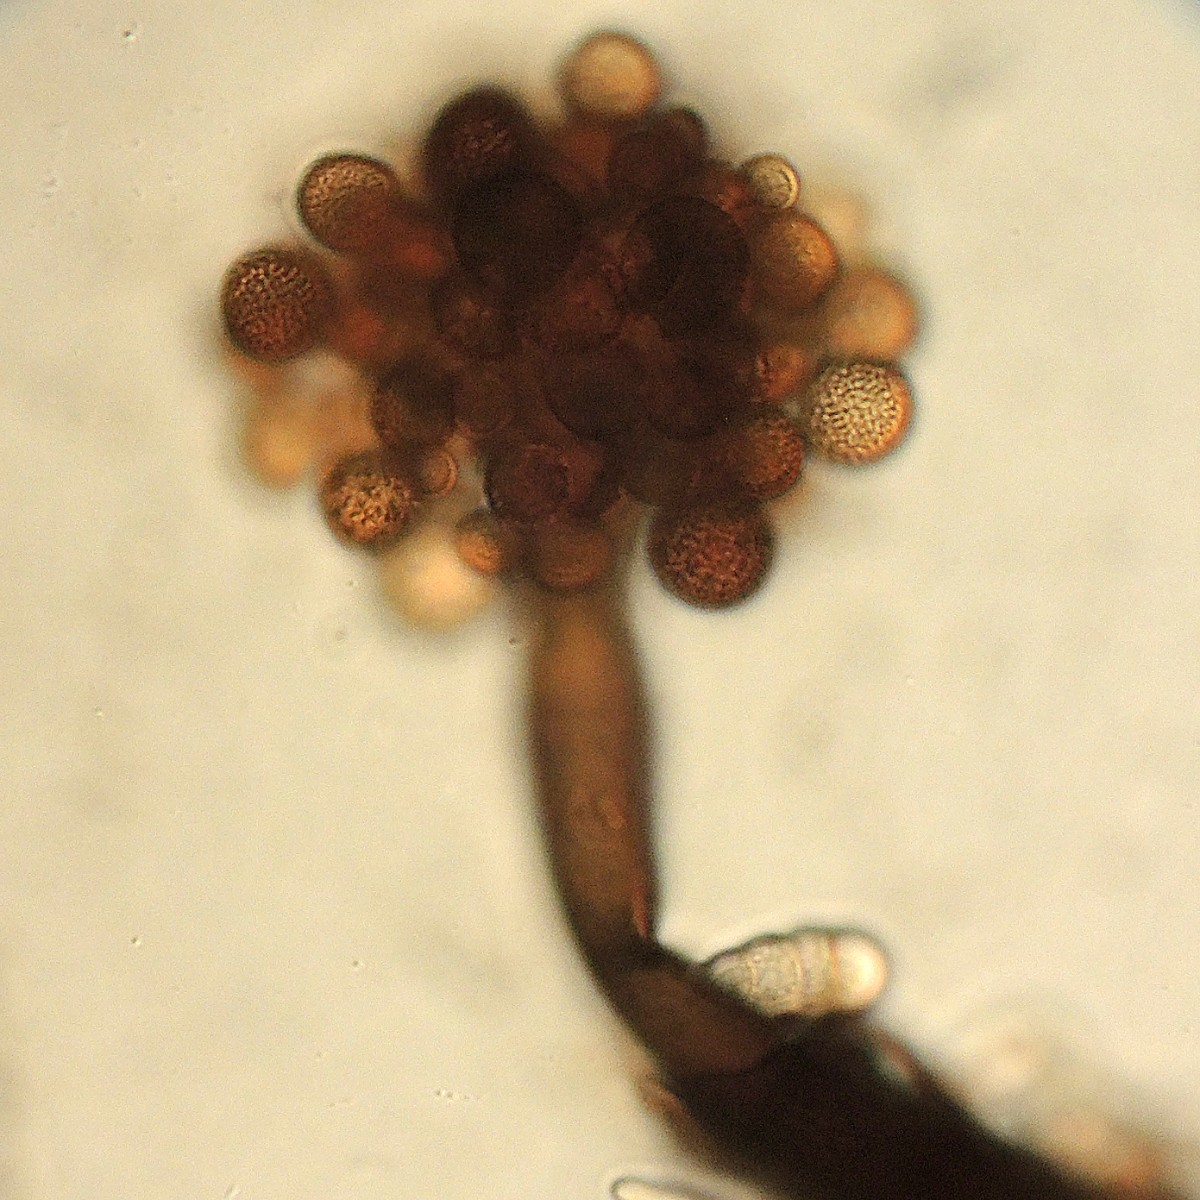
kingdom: Fungi
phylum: Ascomycota
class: Dothideomycetes
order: Pleosporales
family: Periconiaceae
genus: Periconia
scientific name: Periconia cookei
